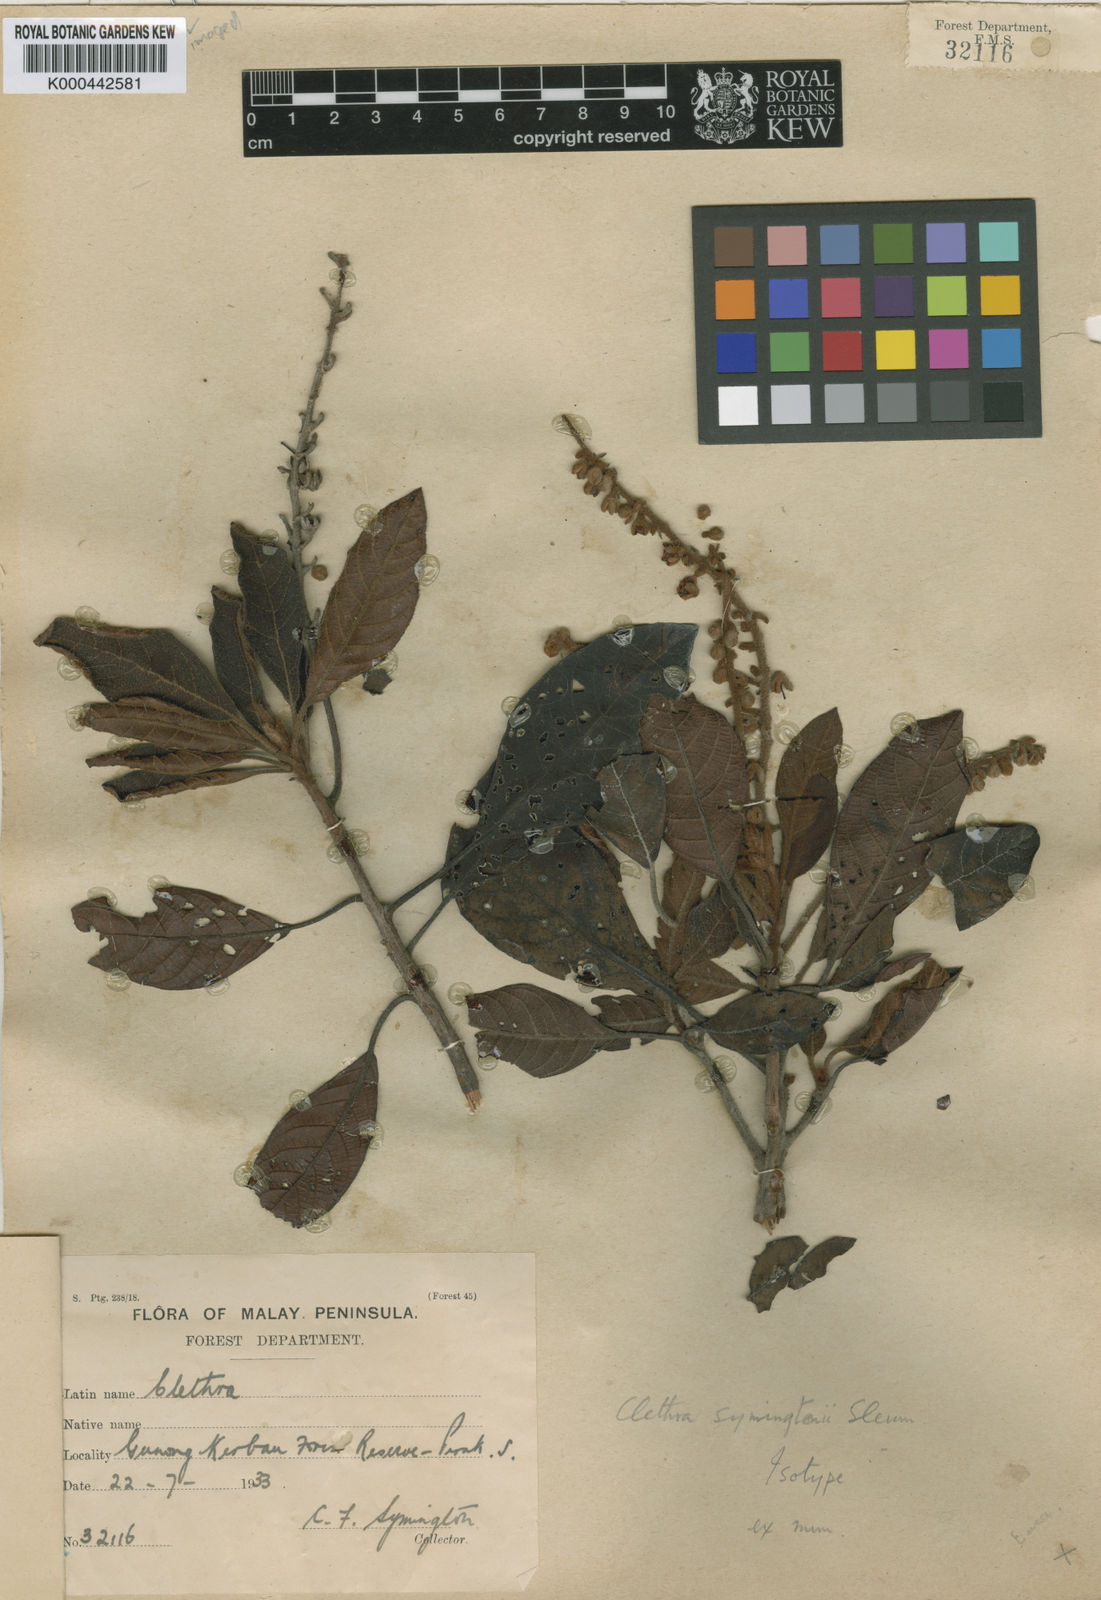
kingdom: Plantae
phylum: Tracheophyta
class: Magnoliopsida
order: Ericales
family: Clethraceae
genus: Clethra
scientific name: Clethra symingtonii
